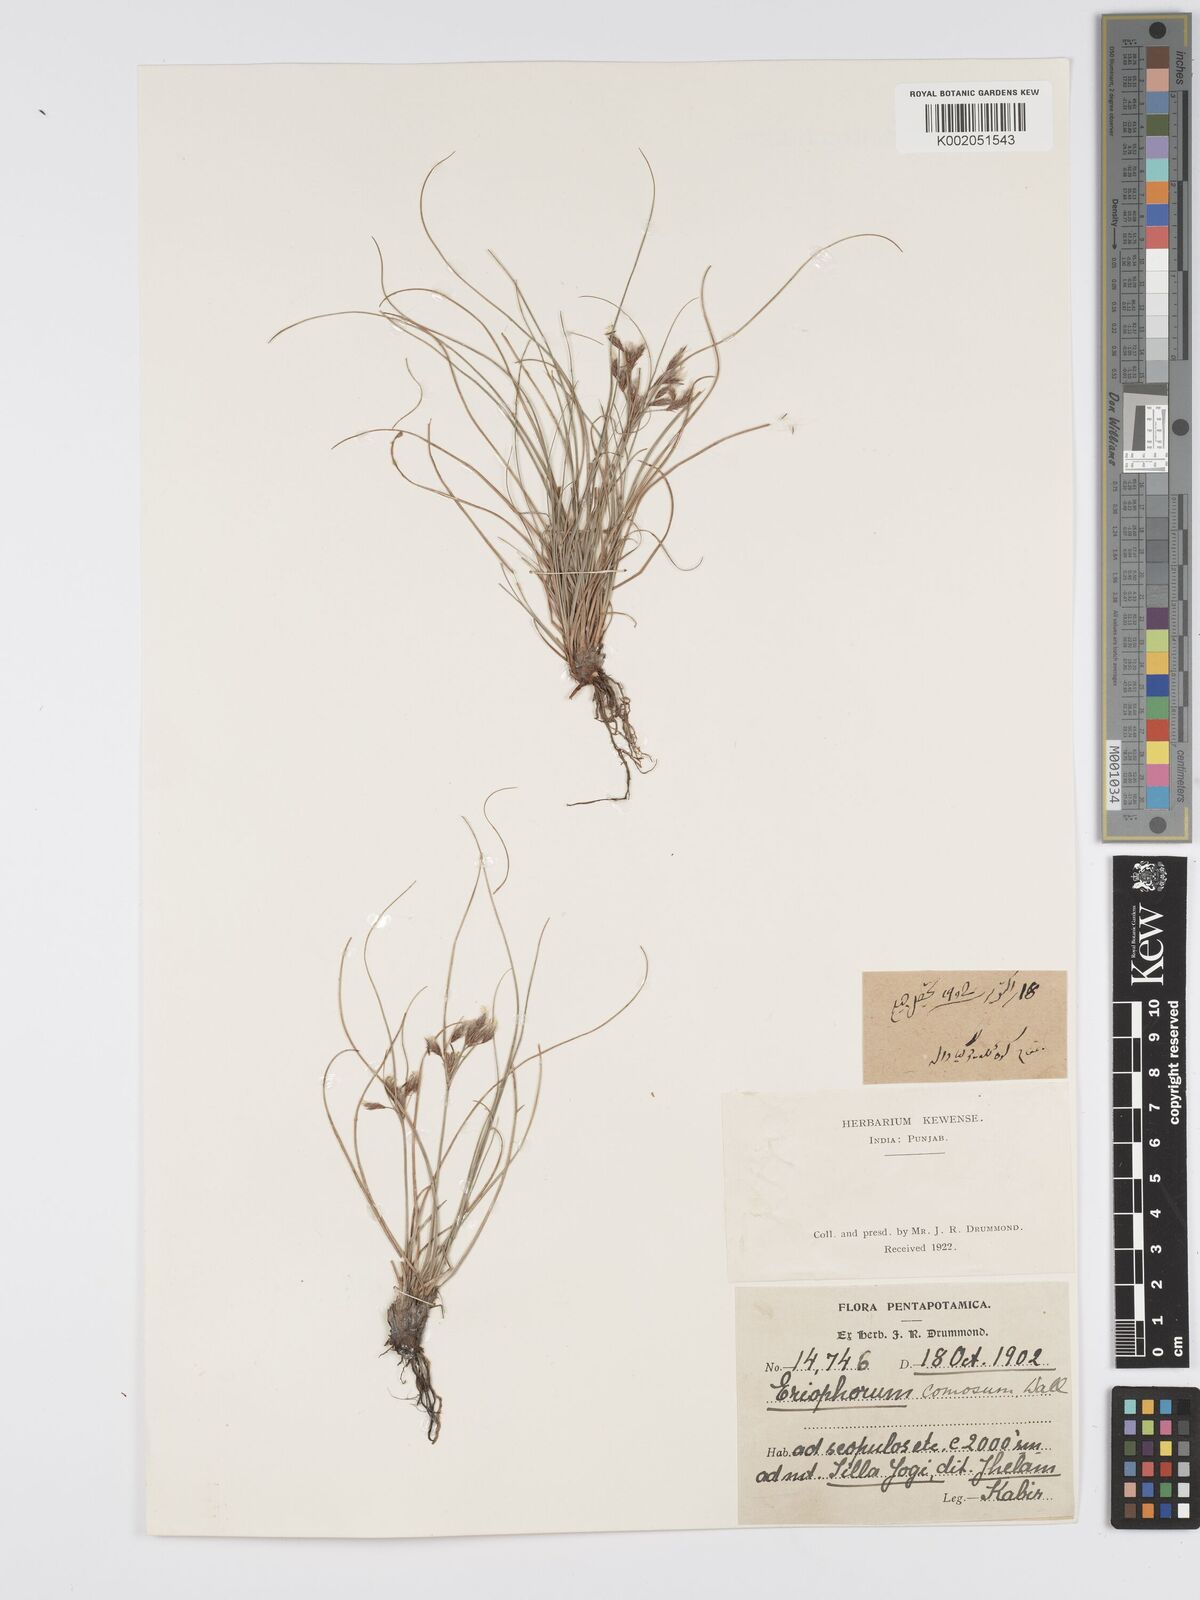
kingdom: Plantae
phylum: Tracheophyta
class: Liliopsida
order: Poales
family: Cyperaceae
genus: Erioscirpus
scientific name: Erioscirpus comosus
